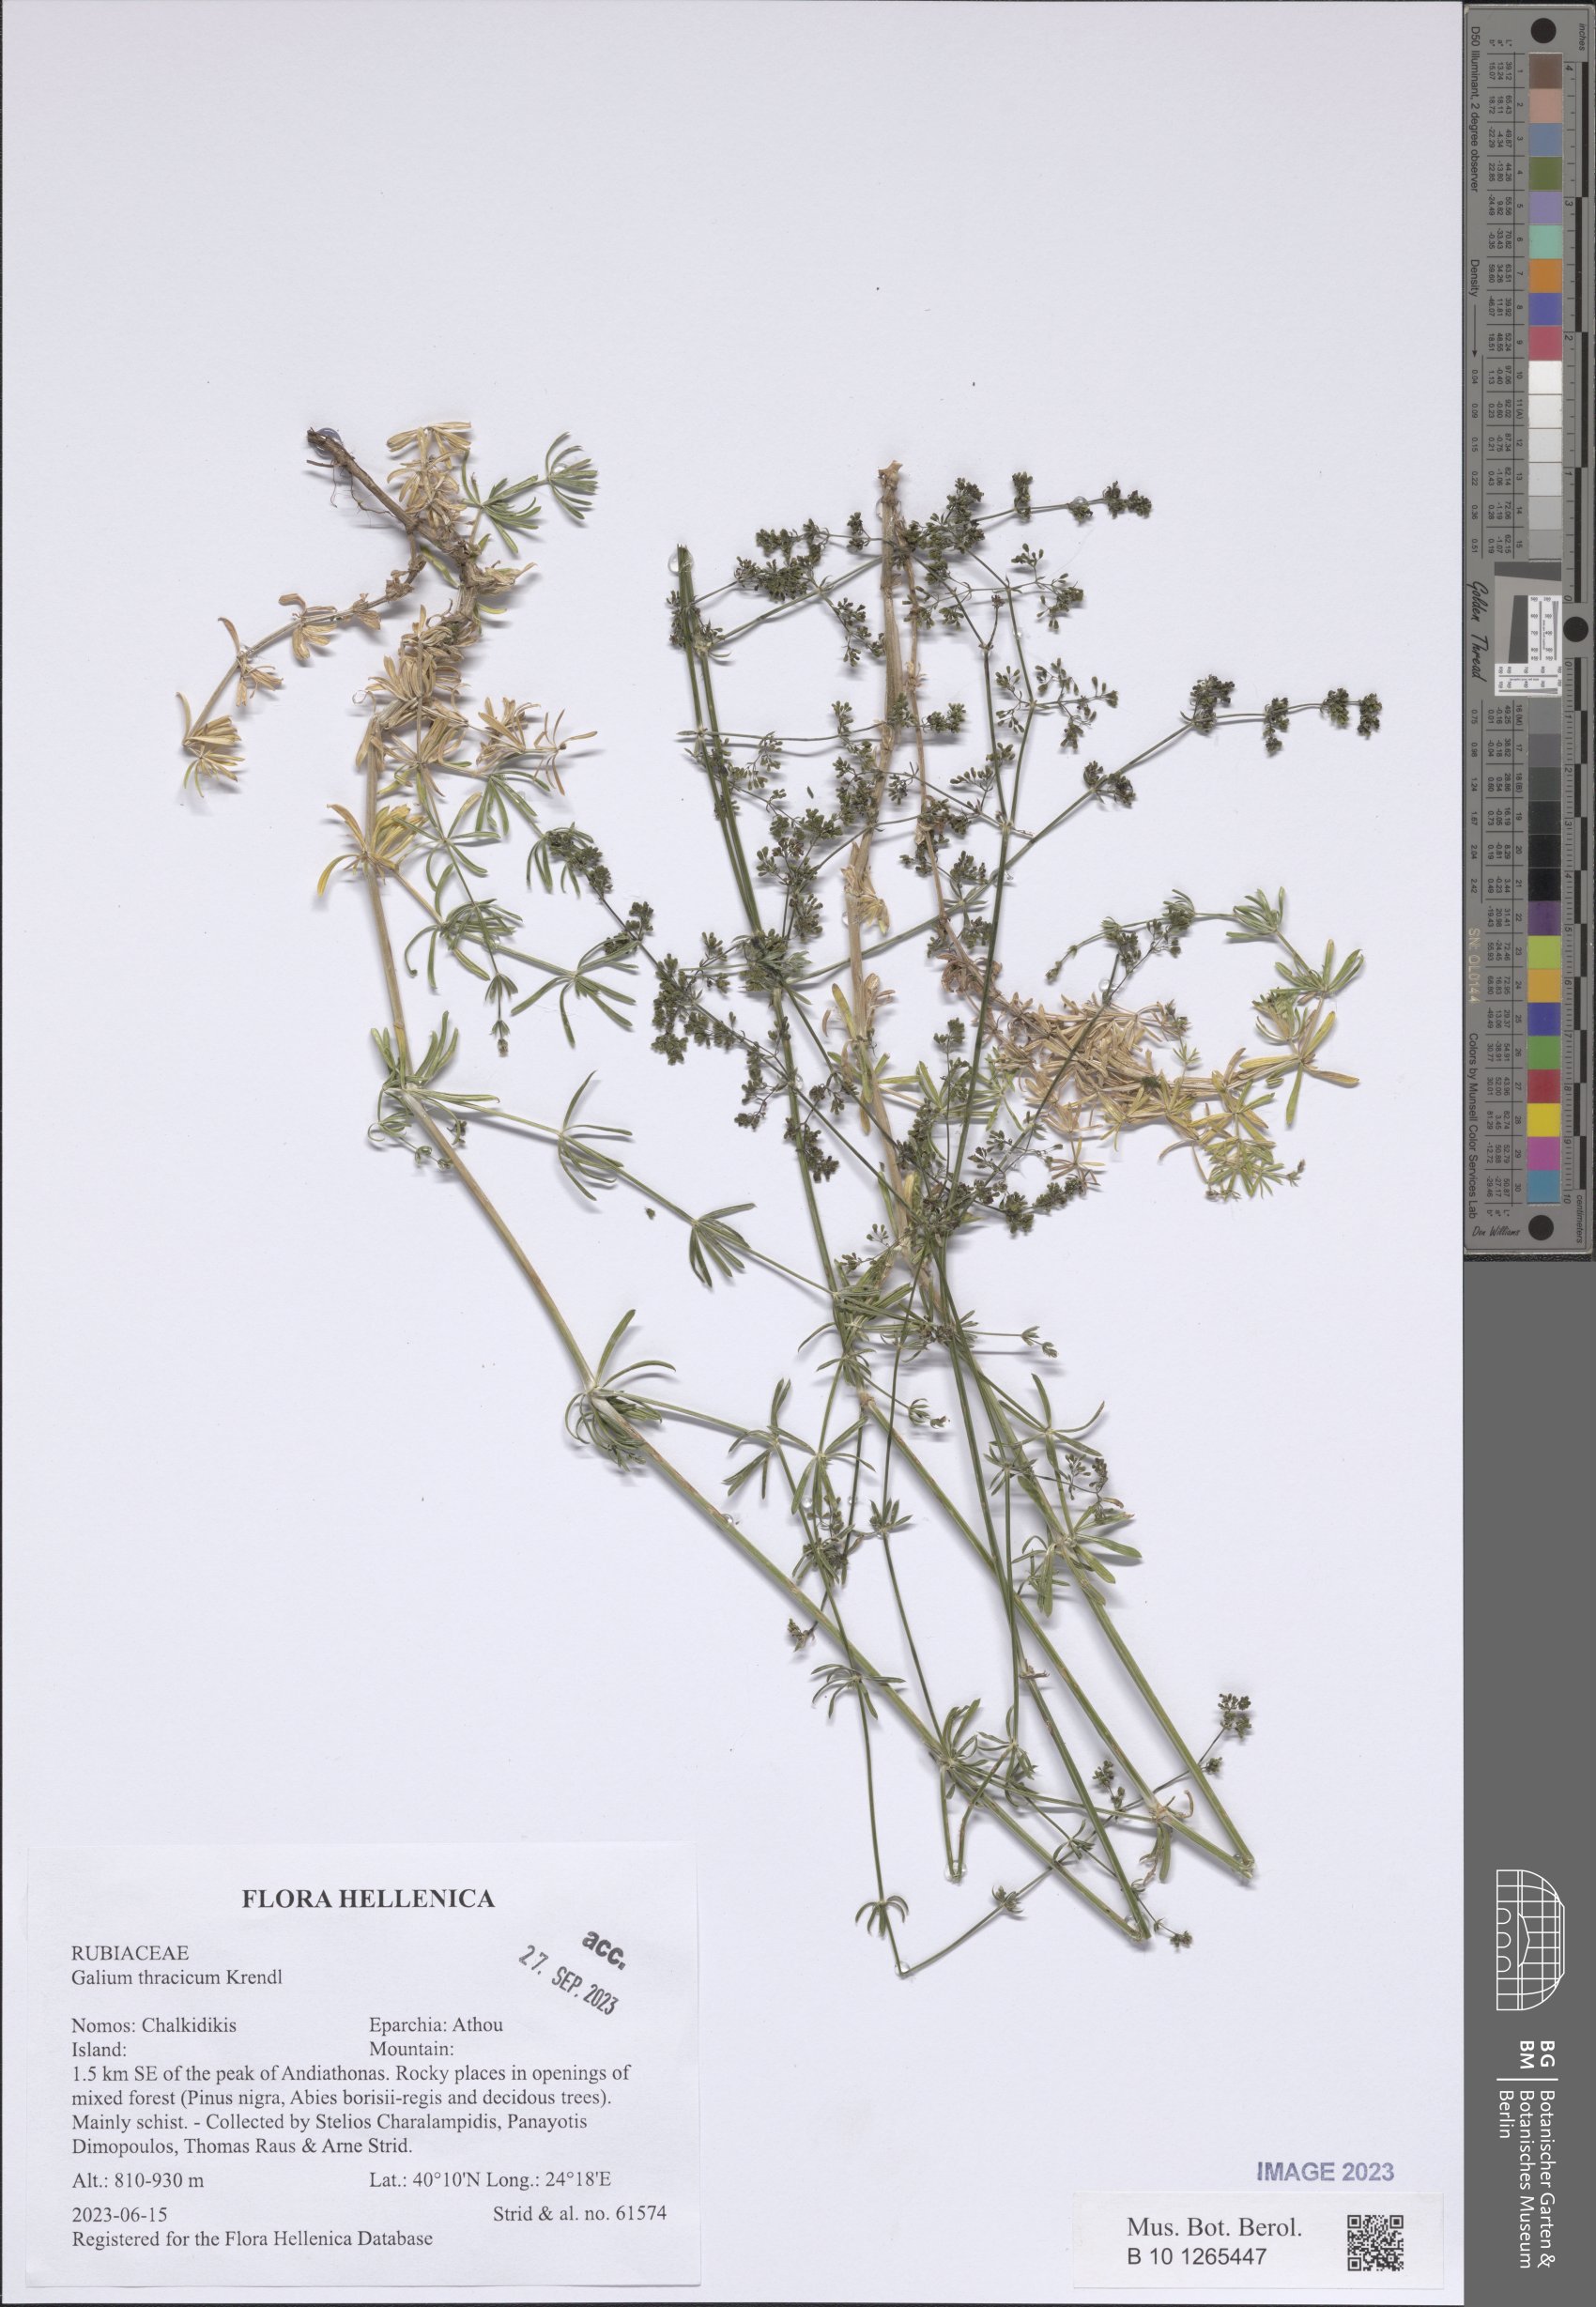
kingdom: Plantae
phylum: Tracheophyta
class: Magnoliopsida
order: Gentianales
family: Rubiaceae
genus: Galium
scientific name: Galium thracicum
